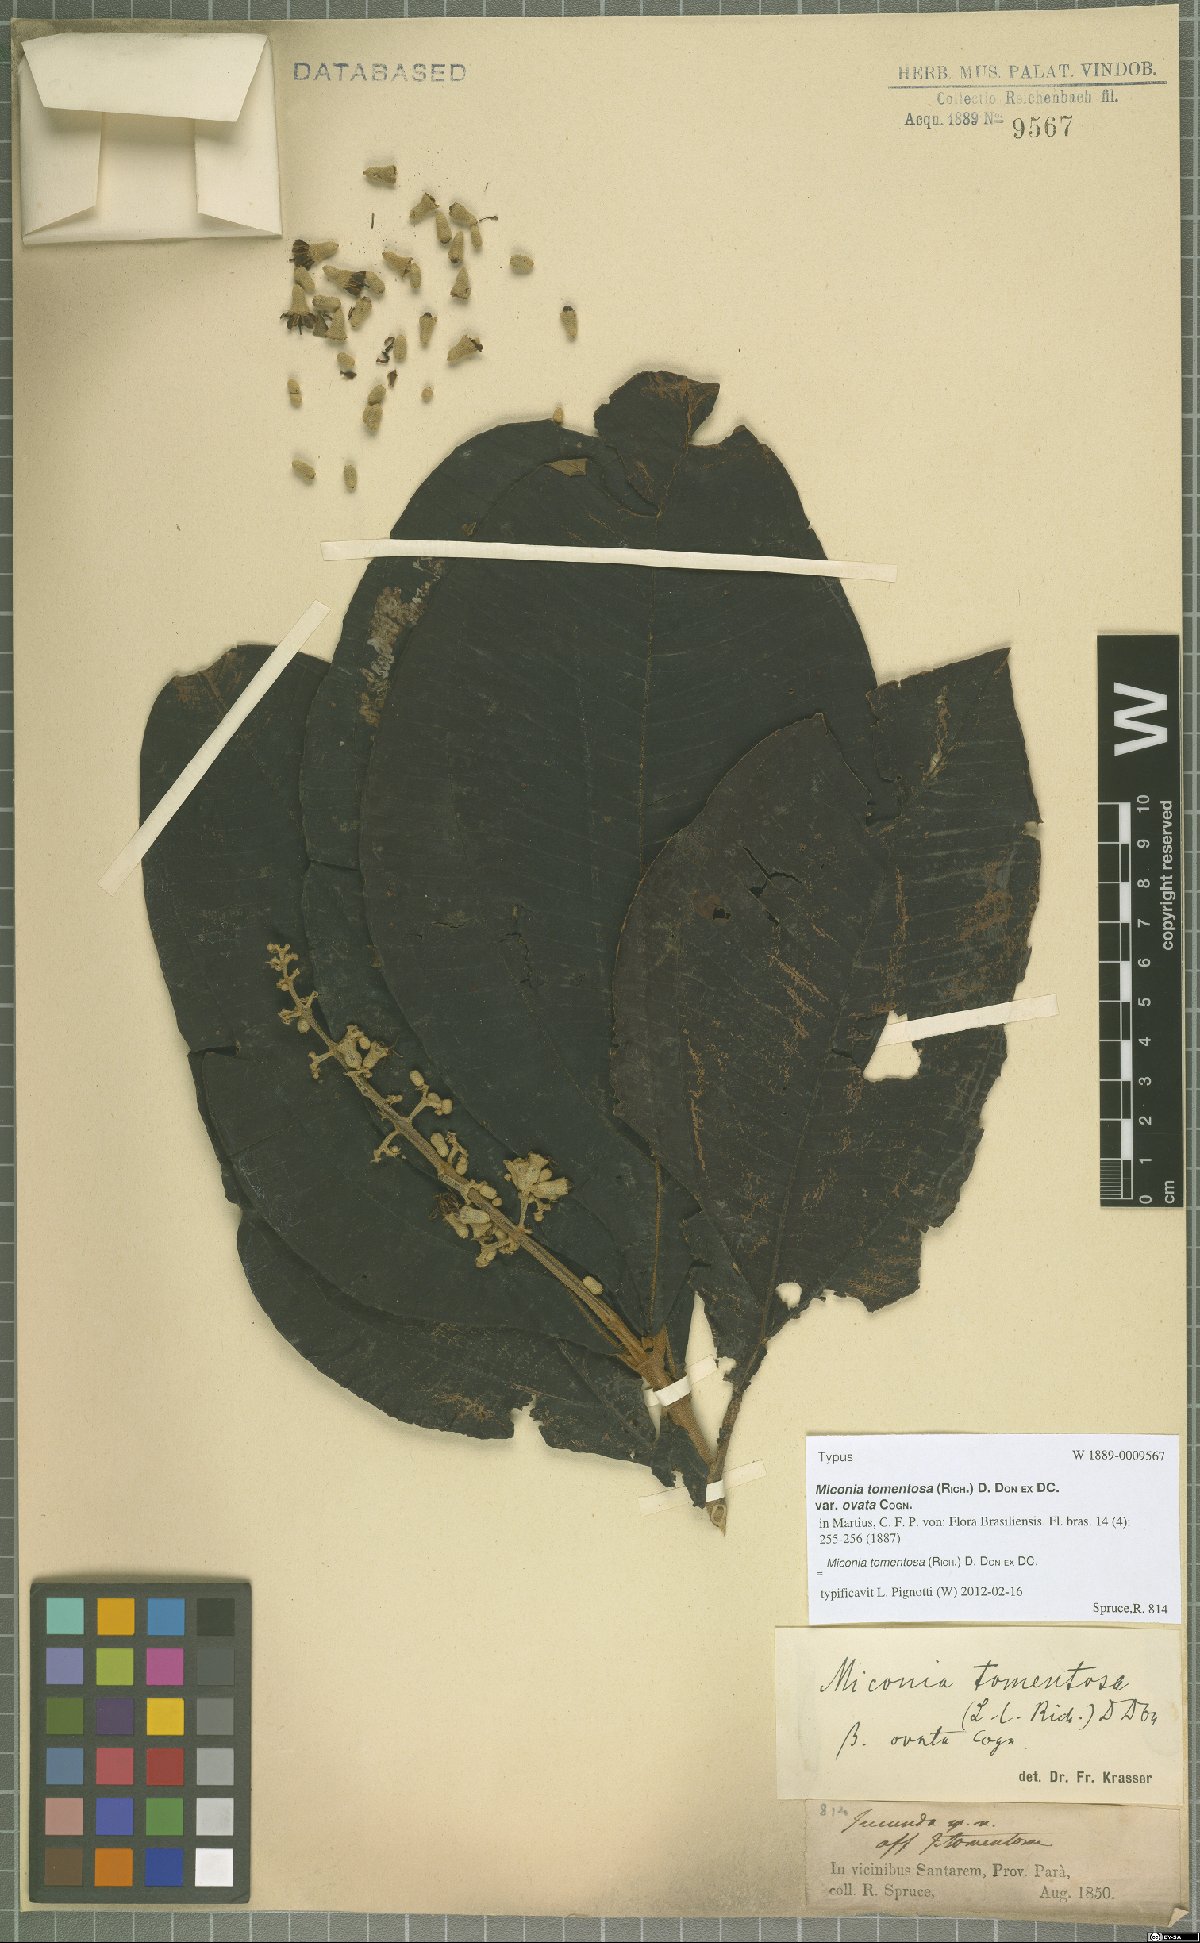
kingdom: Plantae
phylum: Tracheophyta
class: Magnoliopsida
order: Myrtales
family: Melastomataceae
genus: Miconia
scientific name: Miconia tomentosa
